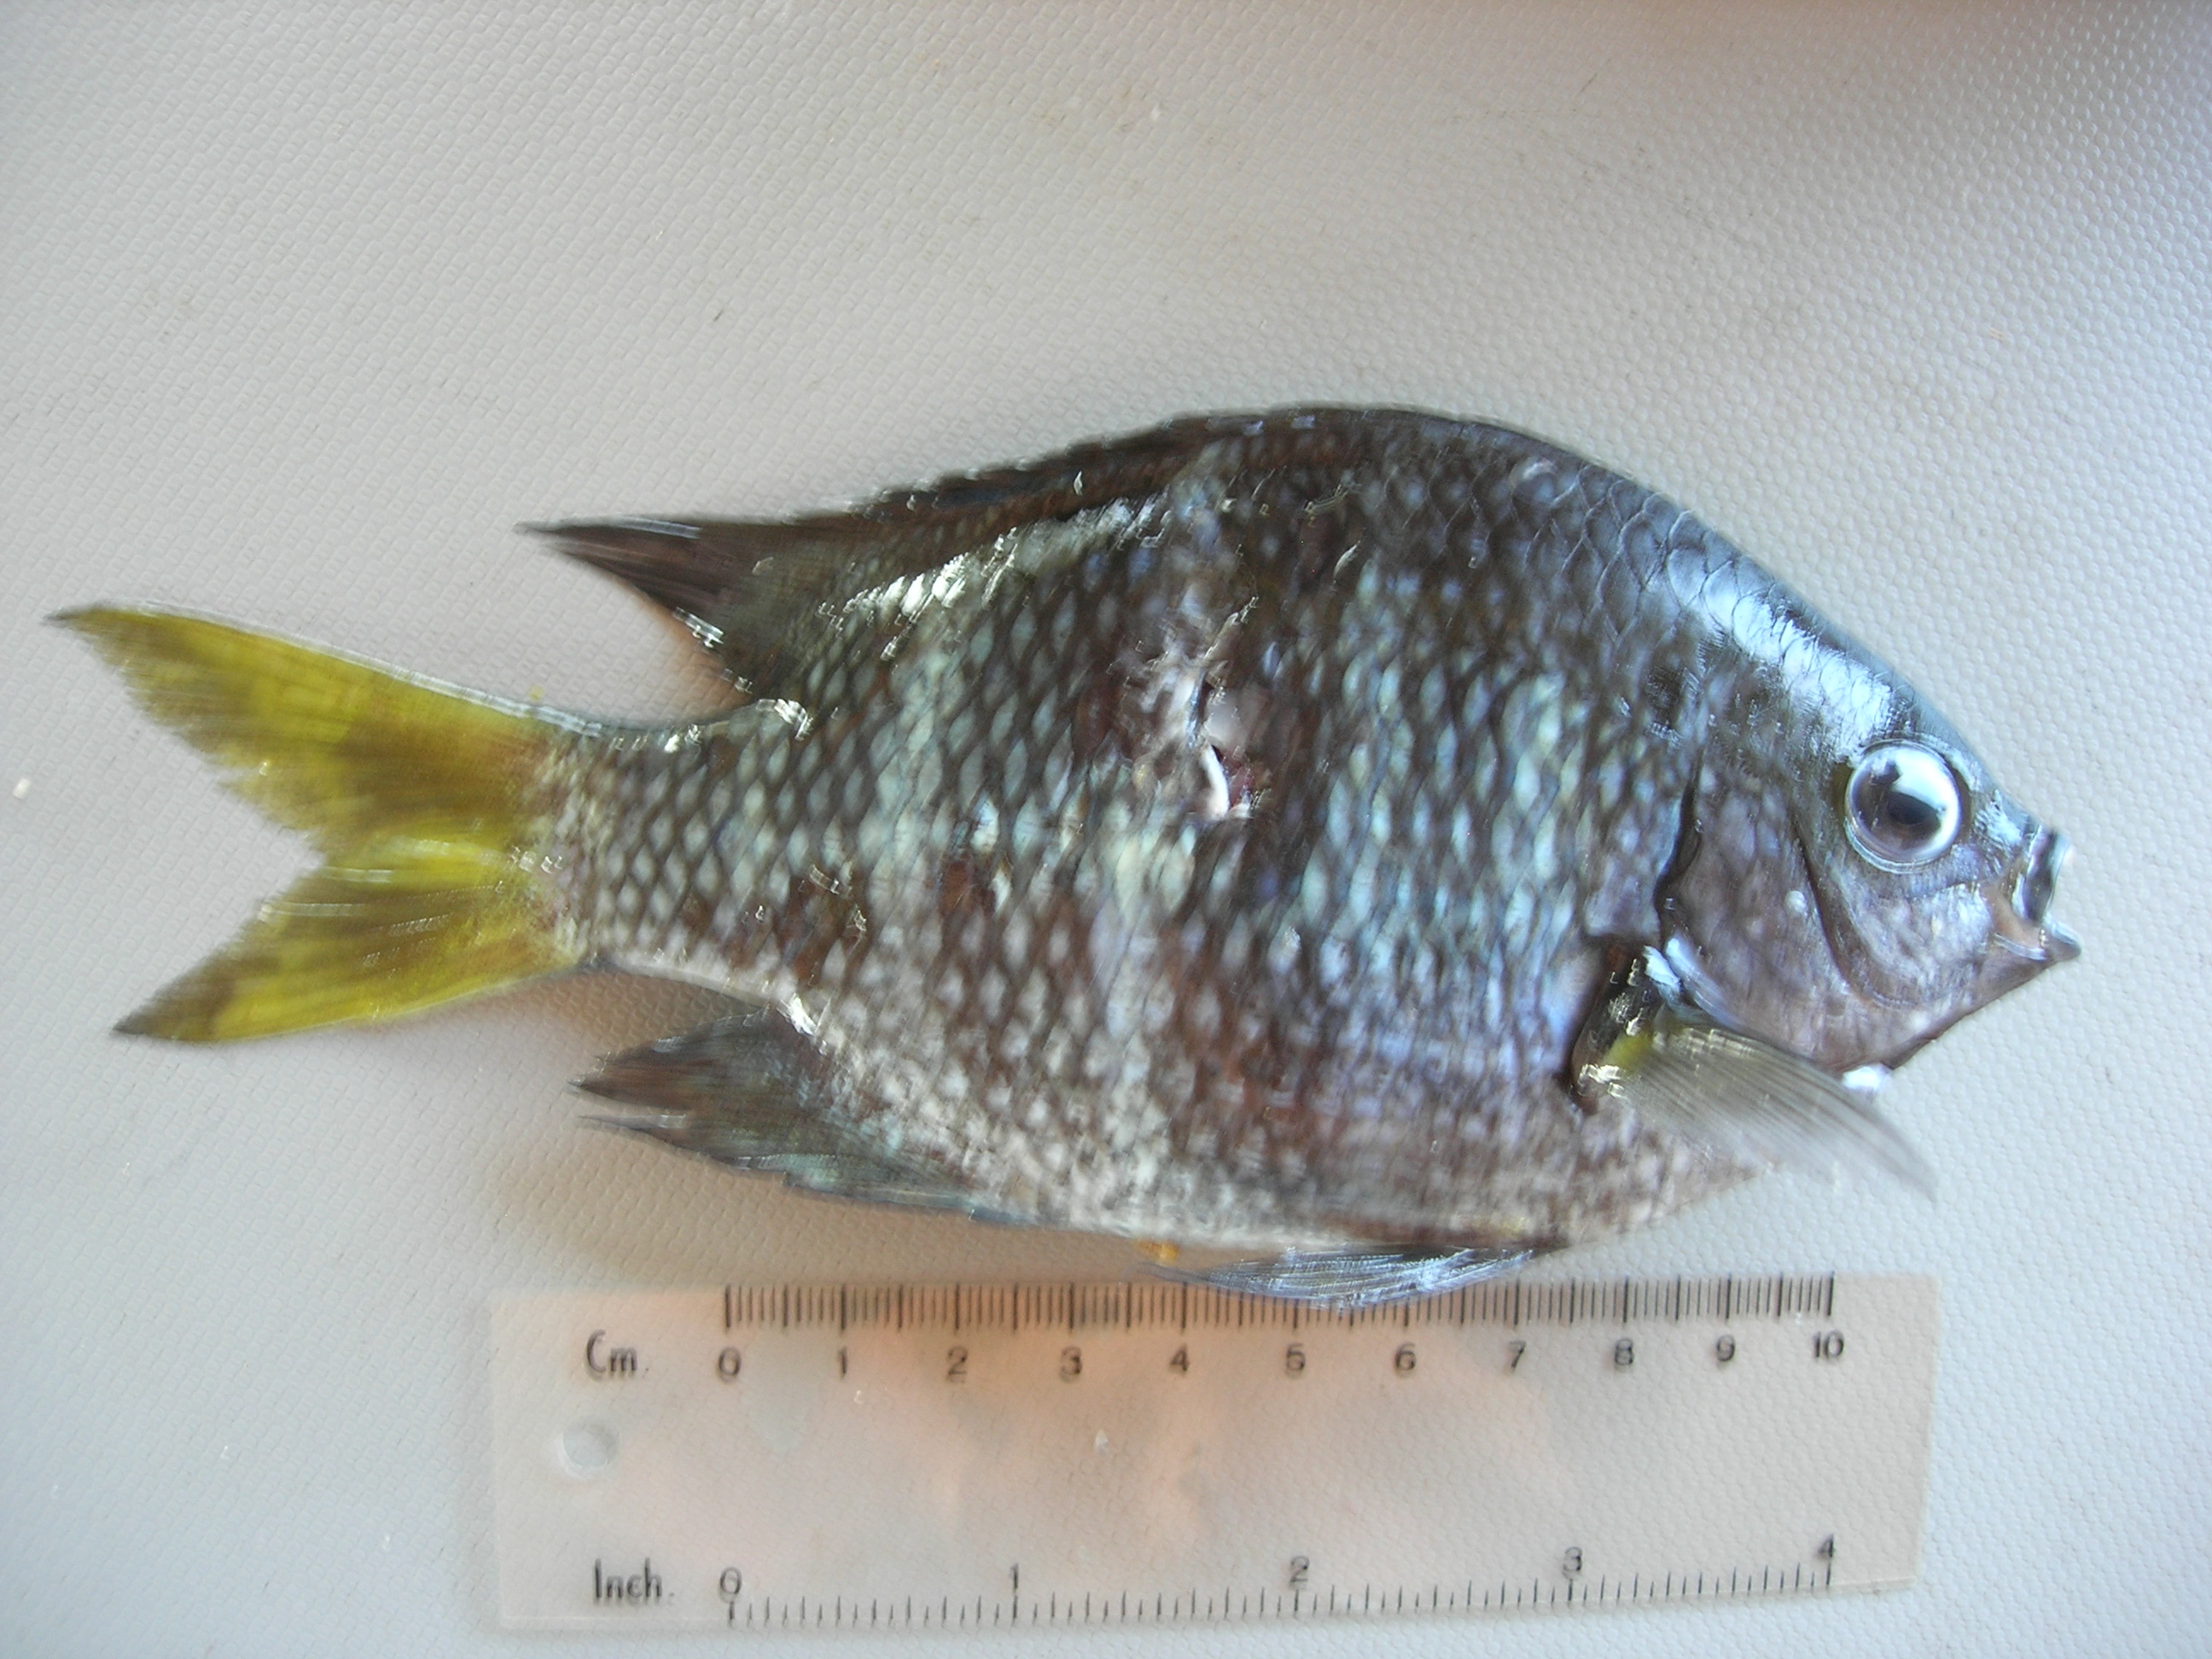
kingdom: Animalia
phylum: Chordata
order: Perciformes
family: Pomacentridae
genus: Abudefduf
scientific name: Abudefduf notatus
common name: Yellow-tail sergeant
